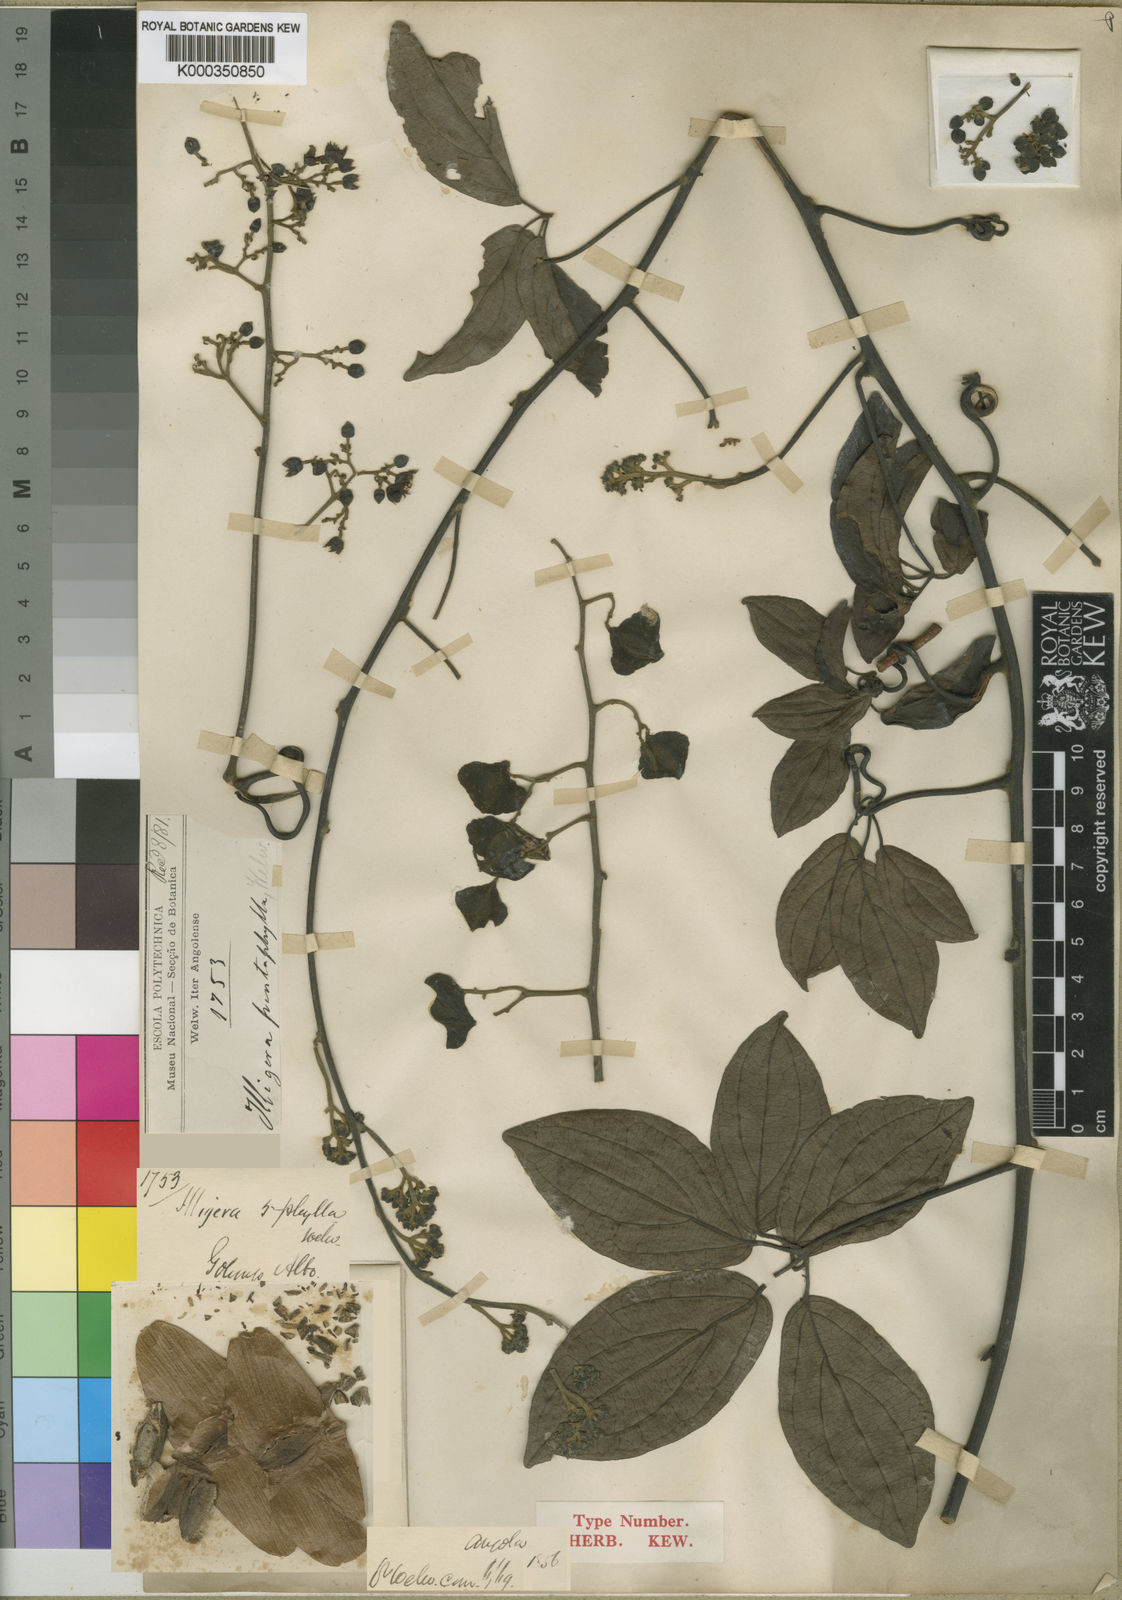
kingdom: Plantae
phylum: Tracheophyta
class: Magnoliopsida
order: Laurales
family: Hernandiaceae
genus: Illigera
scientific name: Illigera pentaphylla
